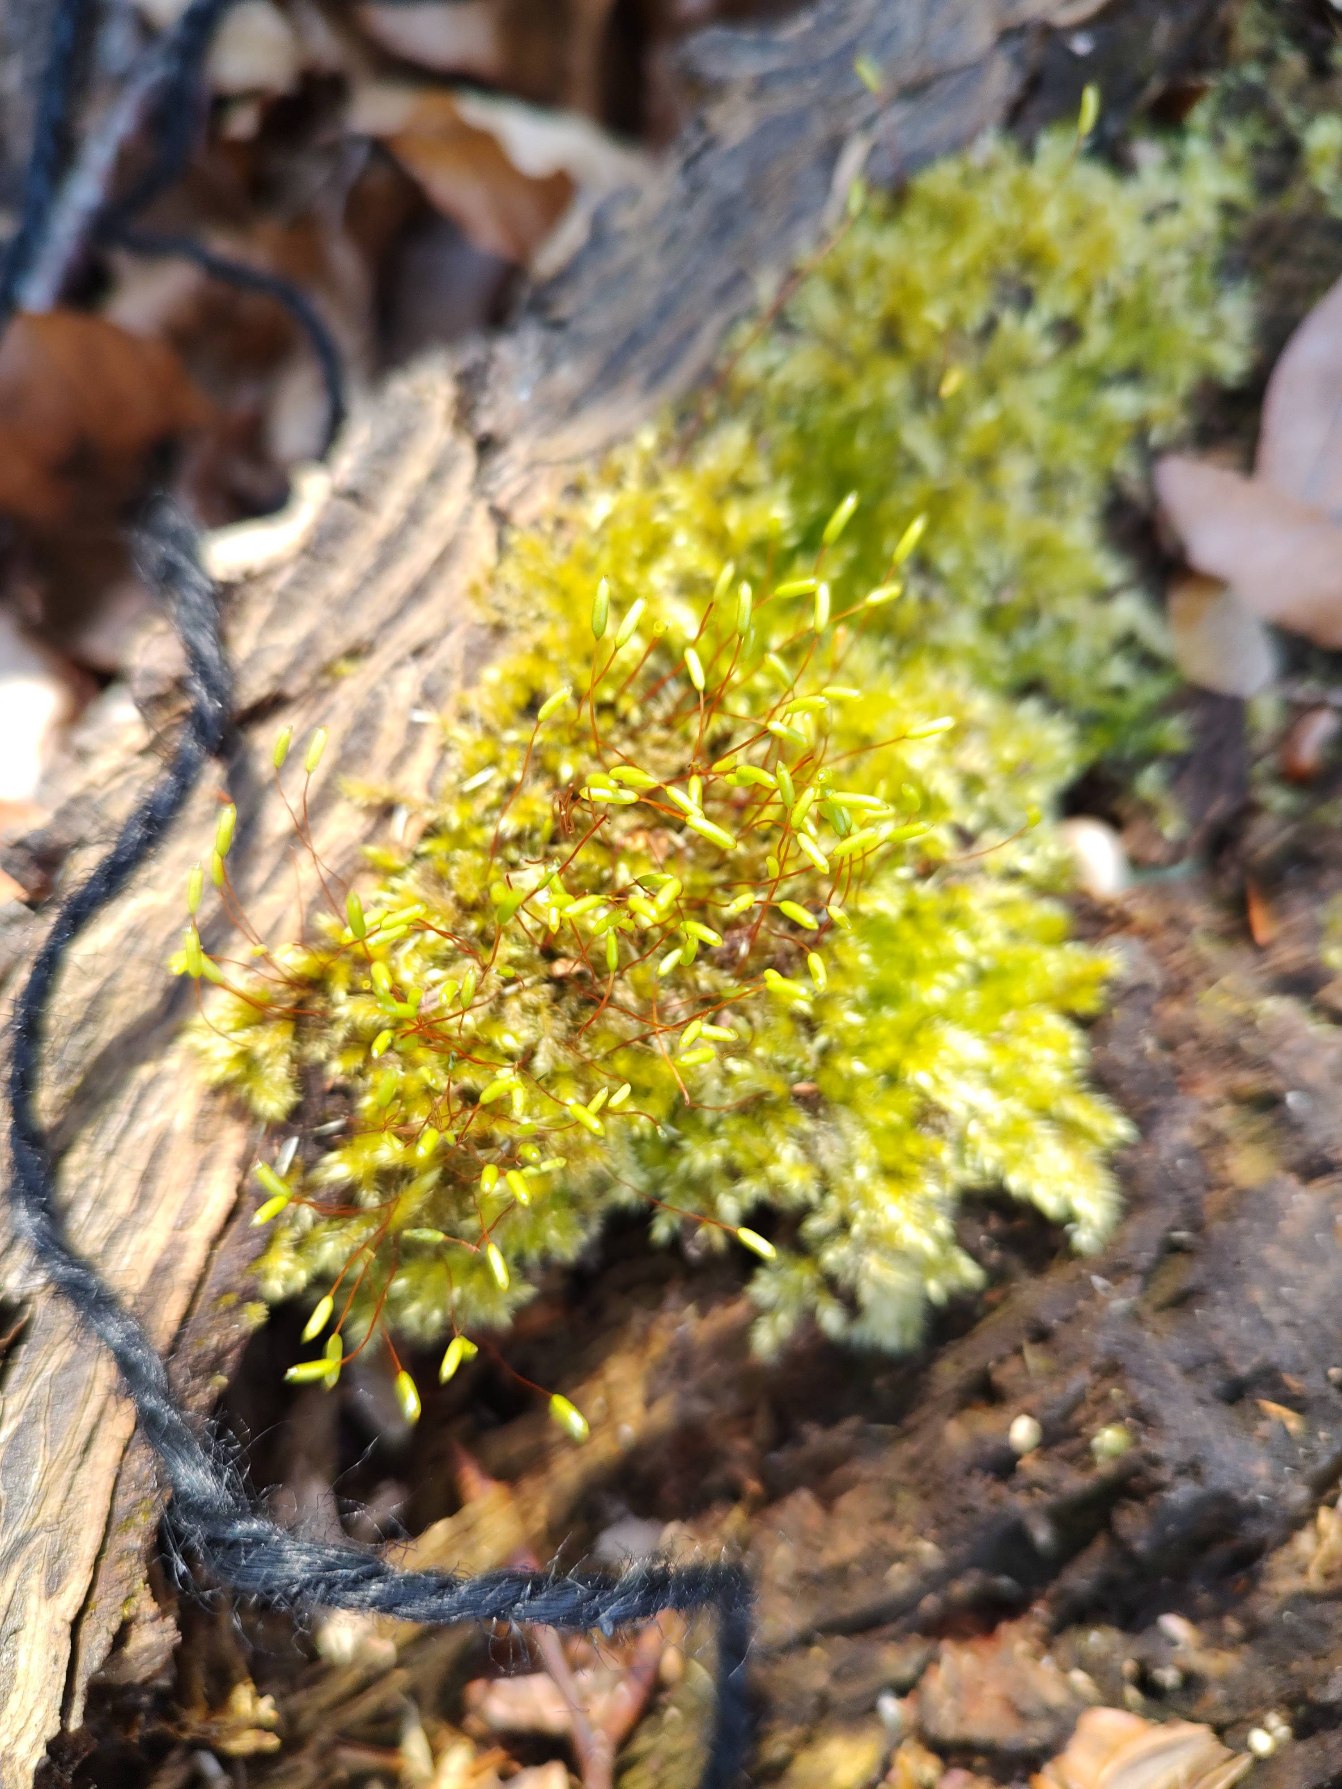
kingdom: Plantae
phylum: Bryophyta
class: Bryopsida
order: Hypnales
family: Plagiotheciaceae
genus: Herzogiella
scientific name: Herzogiella seligeri
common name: Stub-pølsekapsel
